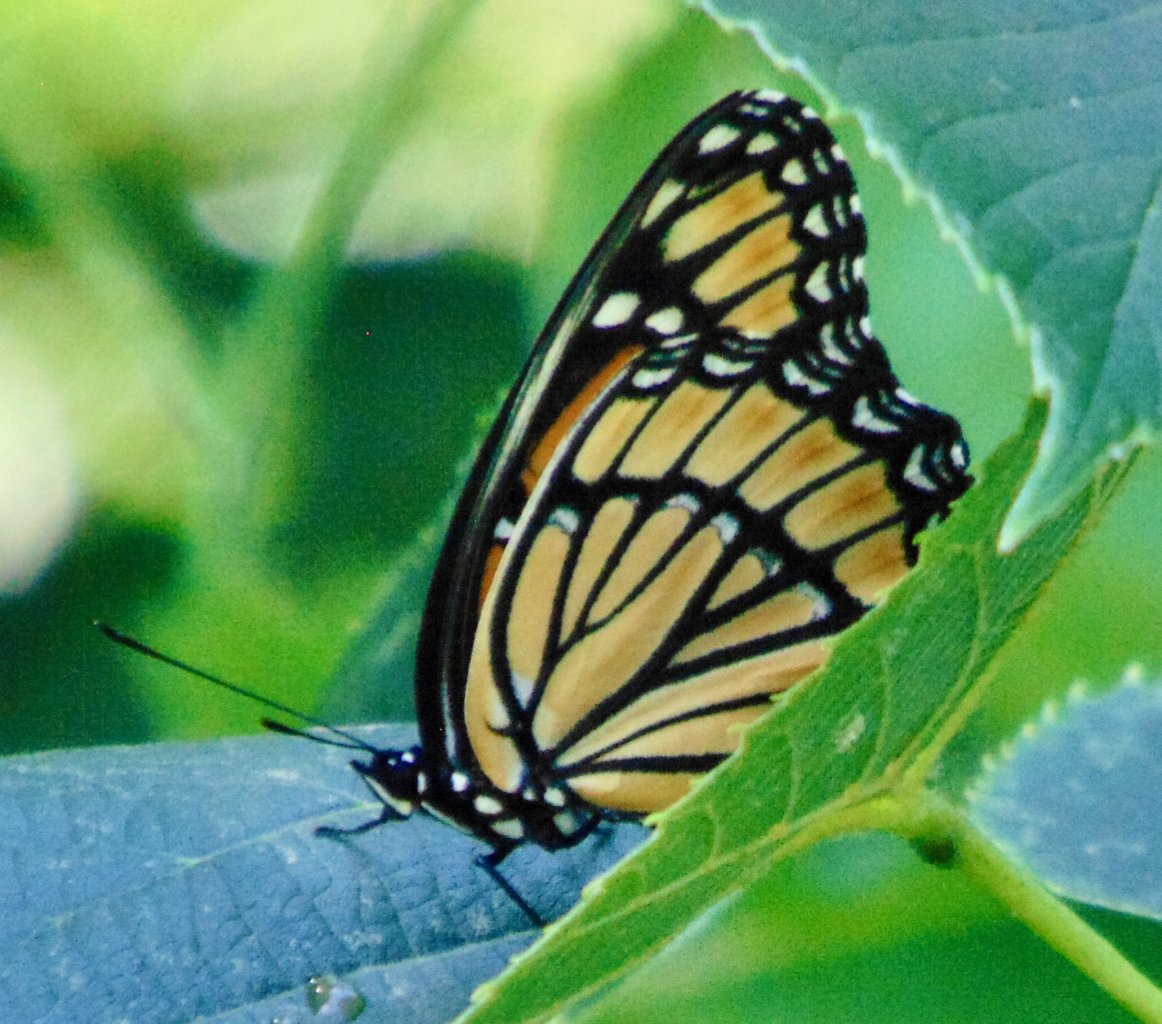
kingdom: Animalia
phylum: Arthropoda
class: Insecta
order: Lepidoptera
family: Nymphalidae
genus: Limenitis
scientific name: Limenitis archippus
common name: Viceroy
